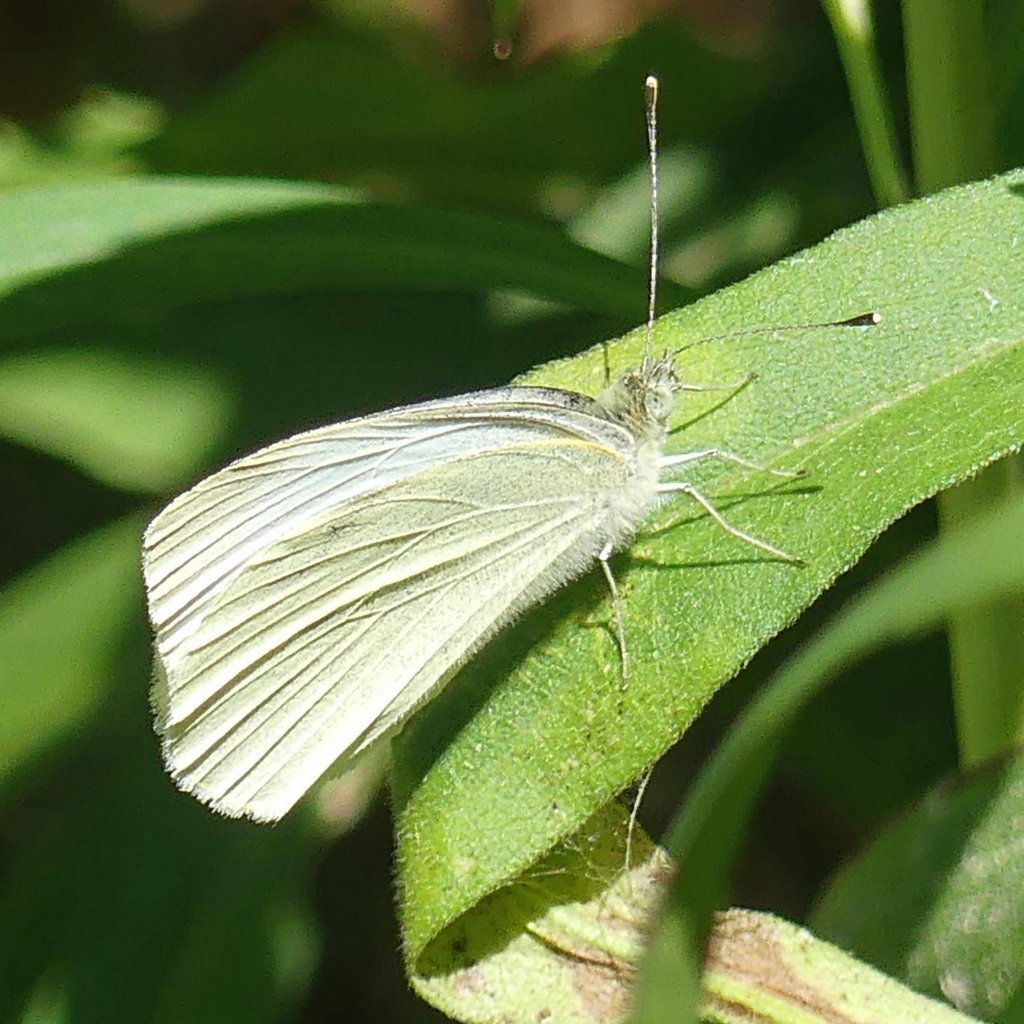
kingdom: Animalia
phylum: Arthropoda
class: Insecta
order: Lepidoptera
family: Pieridae
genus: Pieris
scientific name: Pieris rapae
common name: Cabbage White
